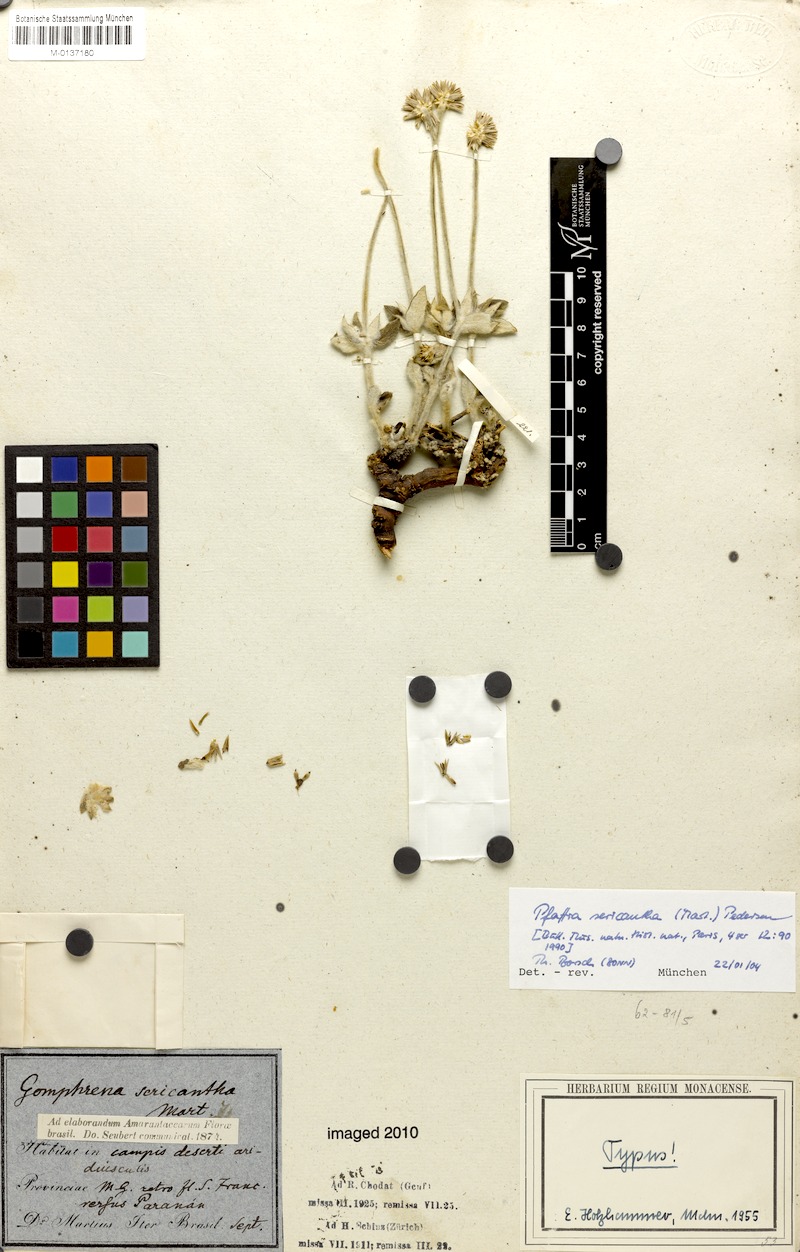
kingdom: Plantae
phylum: Tracheophyta
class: Magnoliopsida
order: Caryophyllales
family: Amaranthaceae
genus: Pfaffia
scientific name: Pfaffia sericantha
